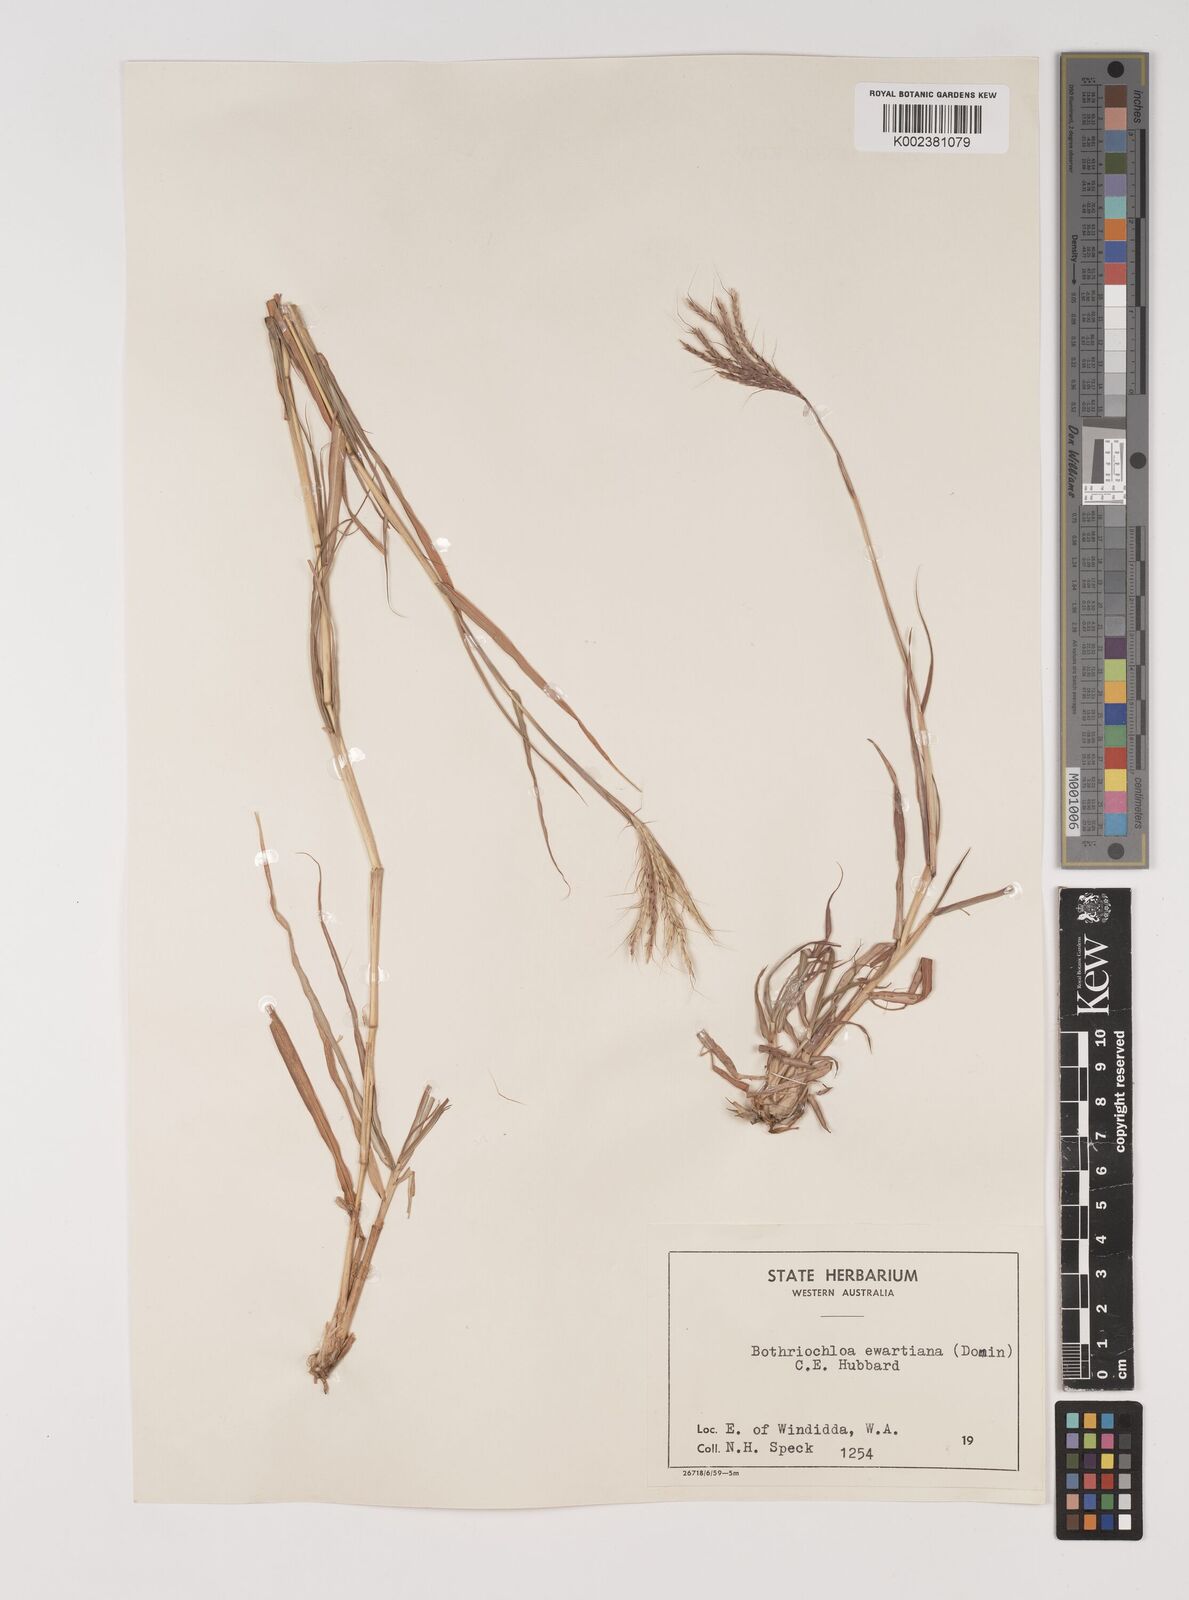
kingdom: Plantae
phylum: Tracheophyta
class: Liliopsida
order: Poales
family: Poaceae
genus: Bothriochloa
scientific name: Bothriochloa ewartiana
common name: Desert-bluegrass
